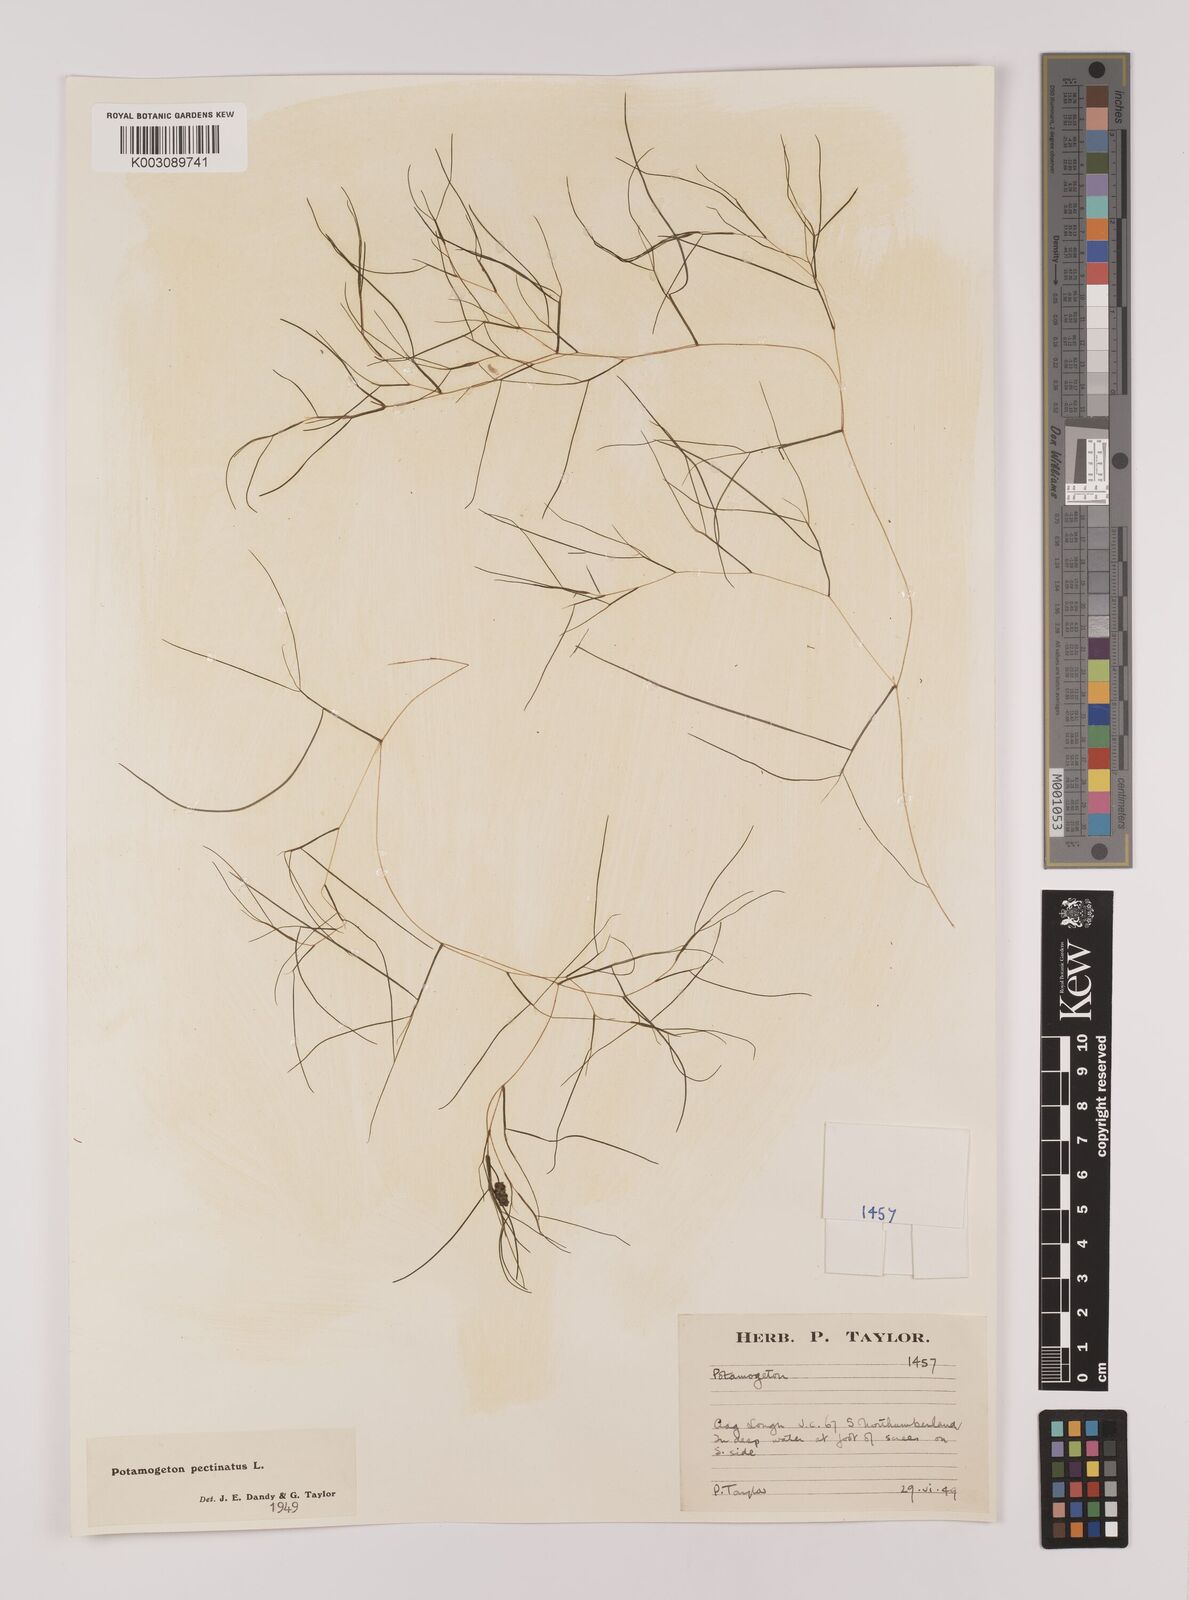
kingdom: Plantae
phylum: Tracheophyta
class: Liliopsida
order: Alismatales
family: Potamogetonaceae
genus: Stuckenia
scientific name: Stuckenia pectinata
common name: Sago pondweed
